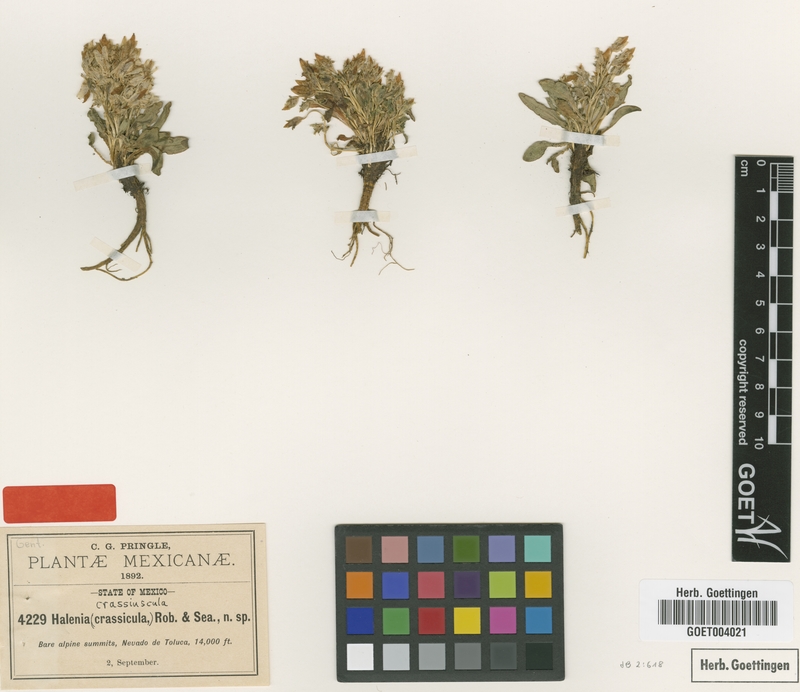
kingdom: Plantae
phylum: Tracheophyta
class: Magnoliopsida
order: Gentianales
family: Gentianaceae
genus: Halenia
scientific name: Halenia pringlei
